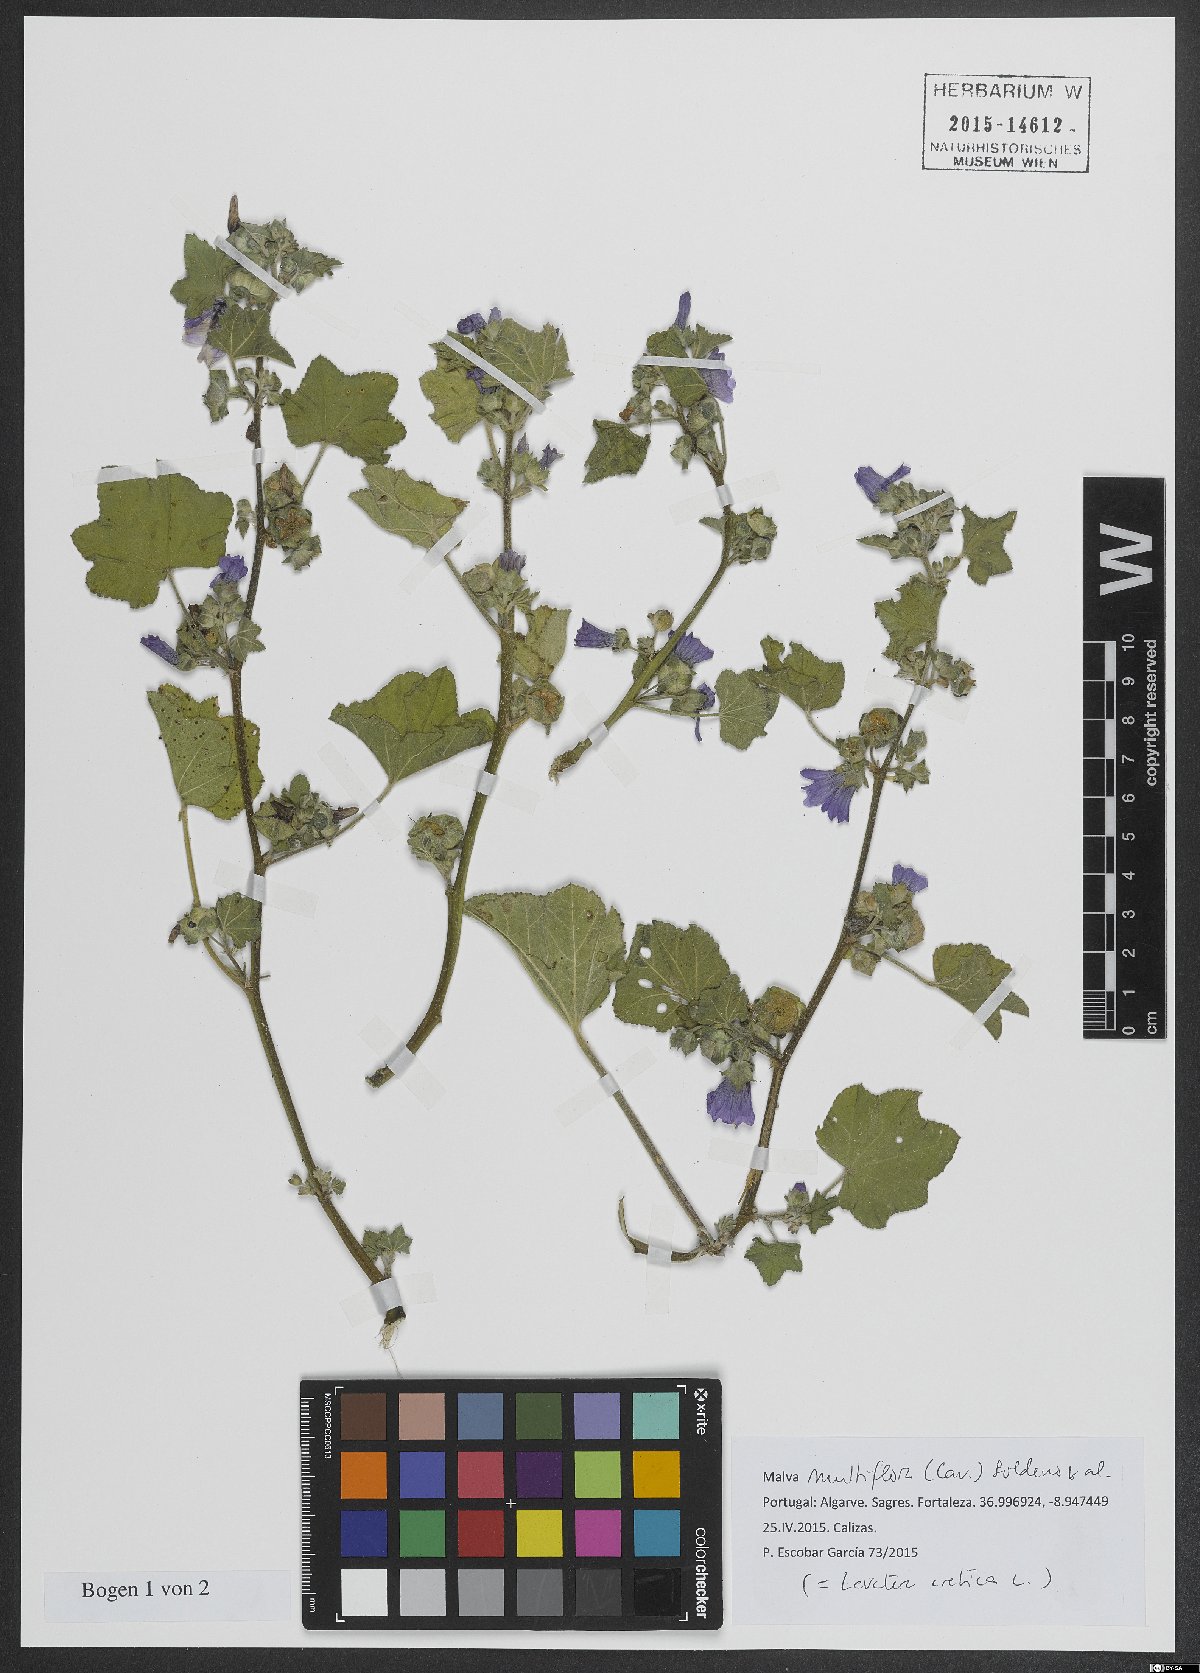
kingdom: Plantae
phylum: Tracheophyta
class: Magnoliopsida
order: Malvales
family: Malvaceae
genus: Malva
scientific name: Malva multiflora
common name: Cheeseweed
